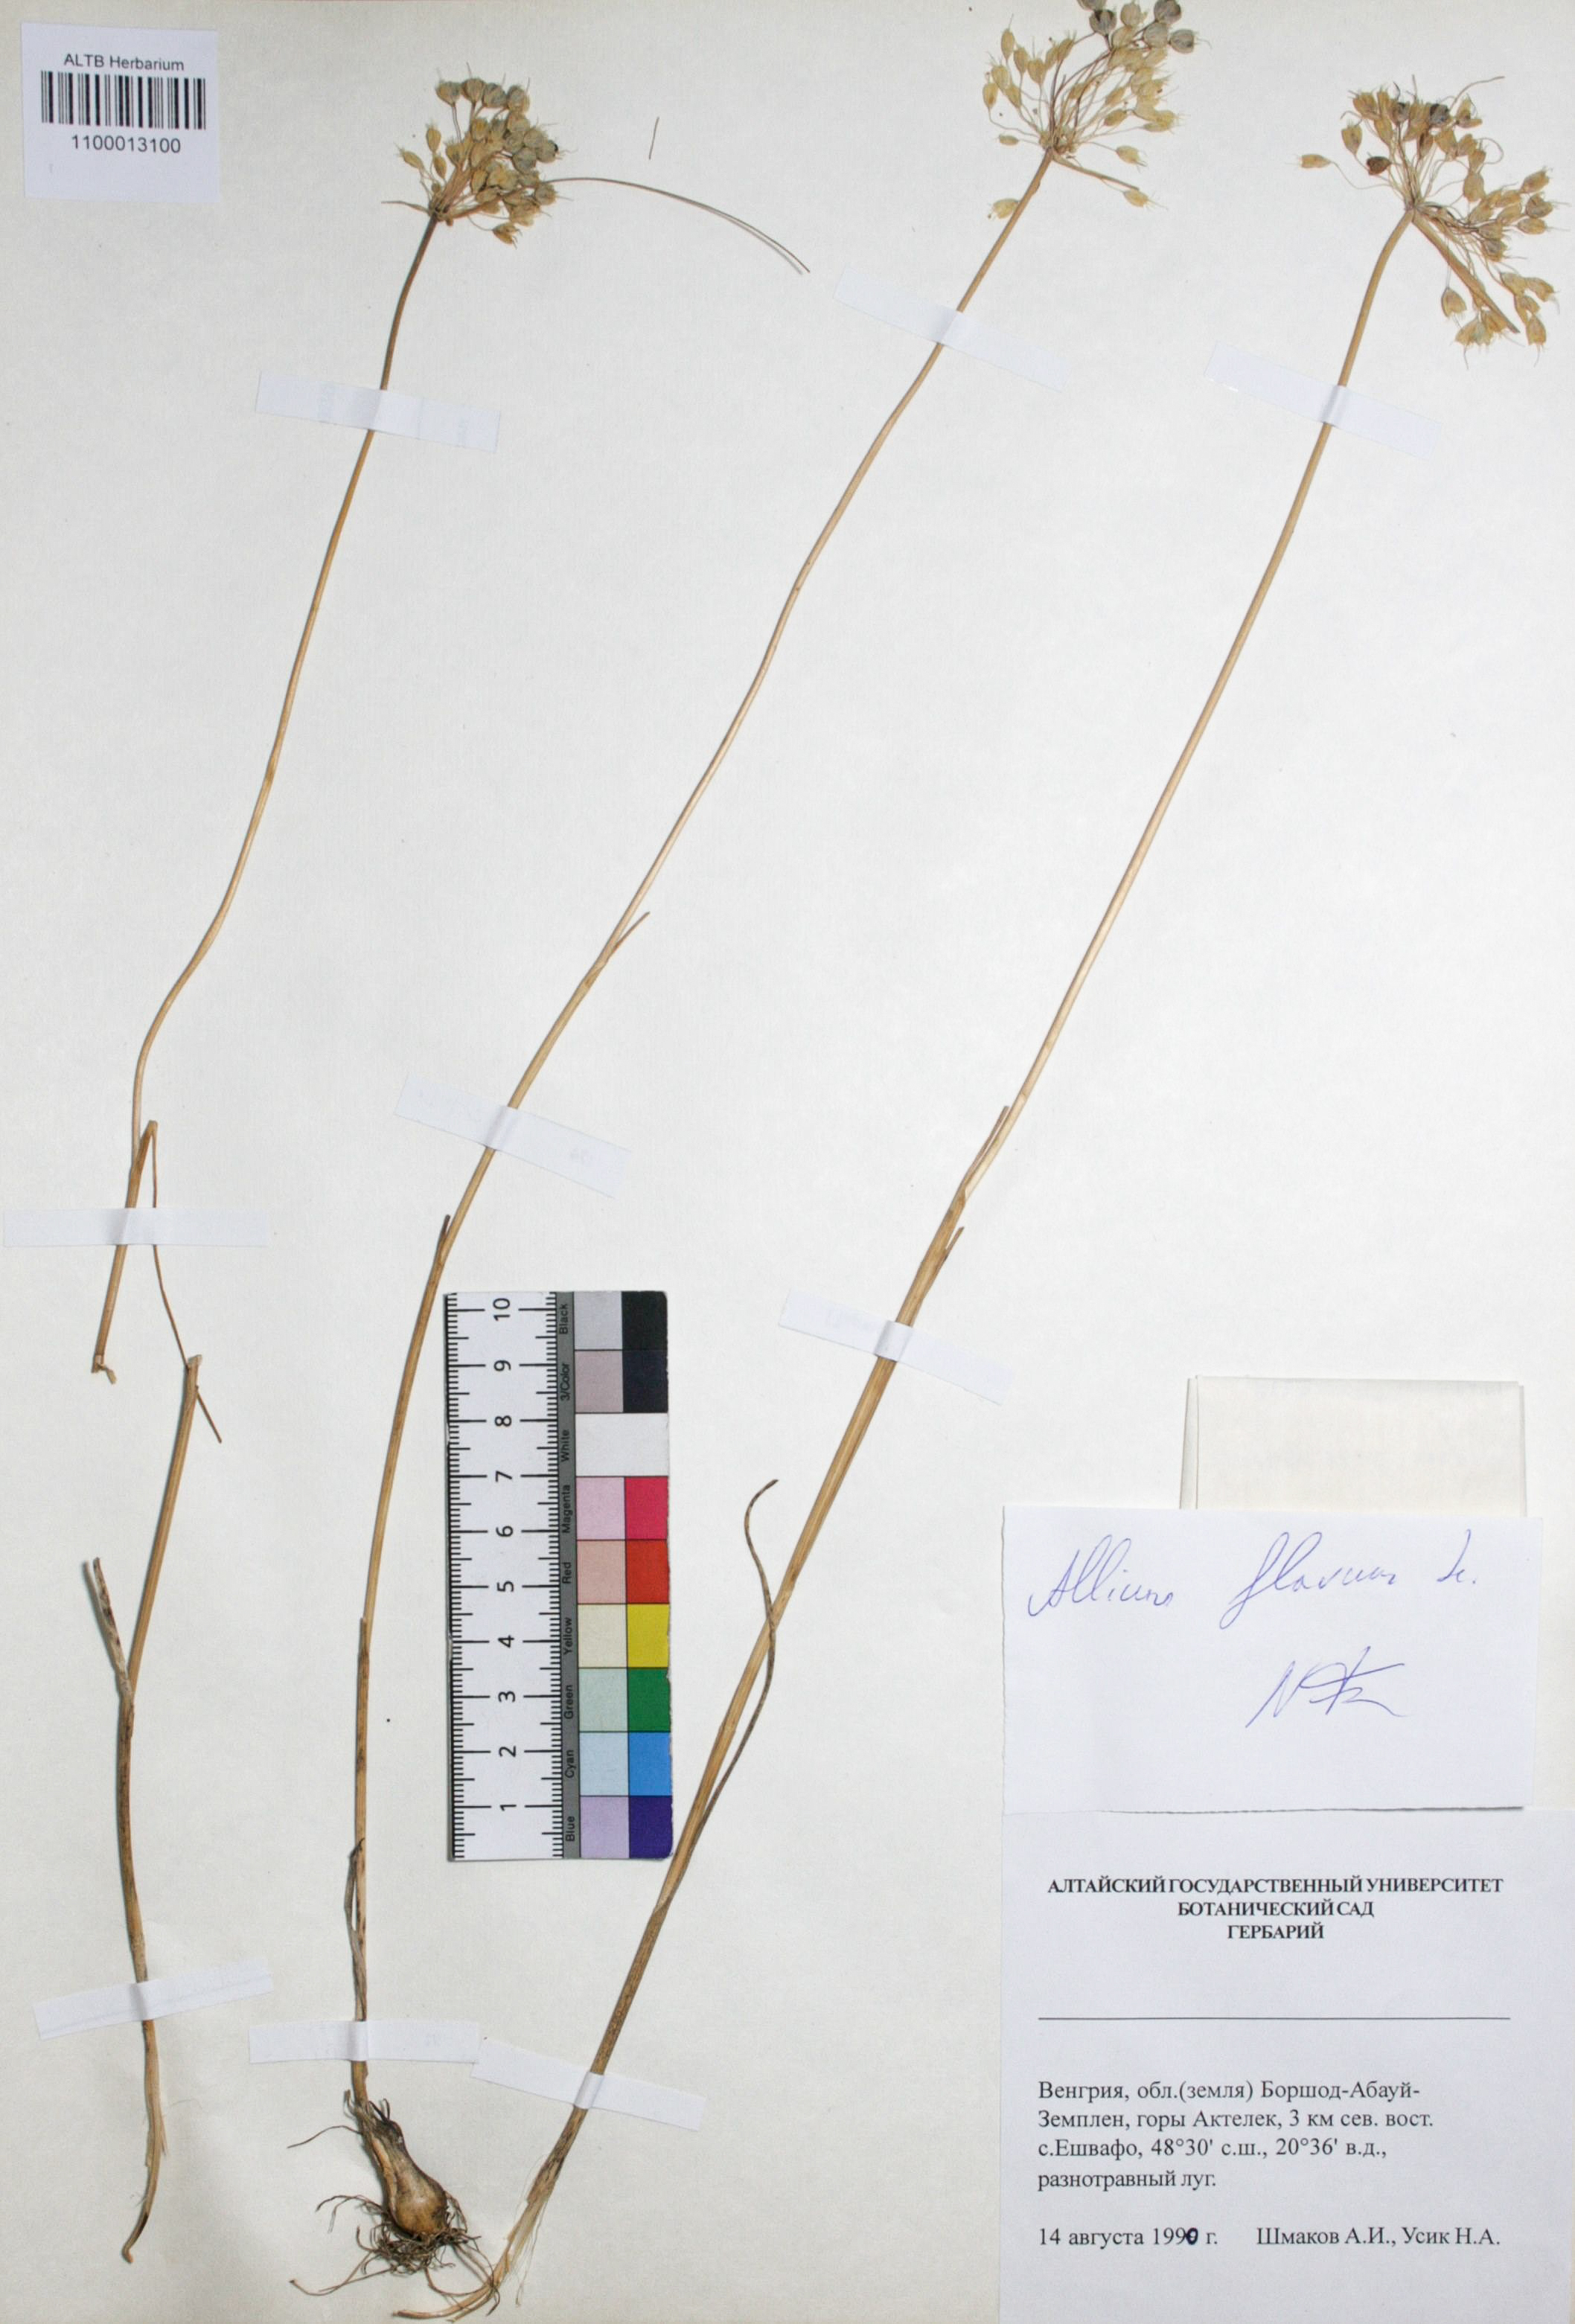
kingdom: Plantae
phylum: Tracheophyta
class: Liliopsida
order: Asparagales
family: Amaryllidaceae
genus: Allium
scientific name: Allium flavum
